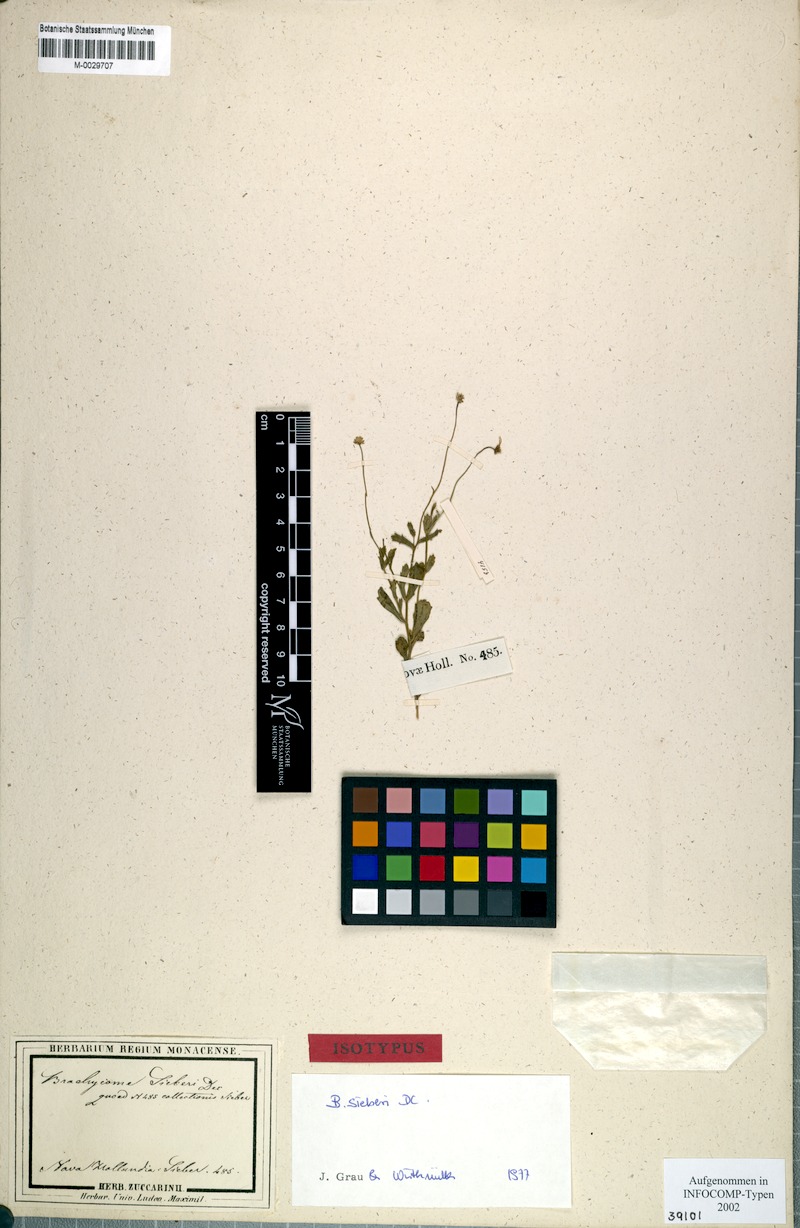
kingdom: Plantae
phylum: Tracheophyta
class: Magnoliopsida
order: Asterales
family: Asteraceae
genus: Brachyscome
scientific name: Brachyscome sieberi
